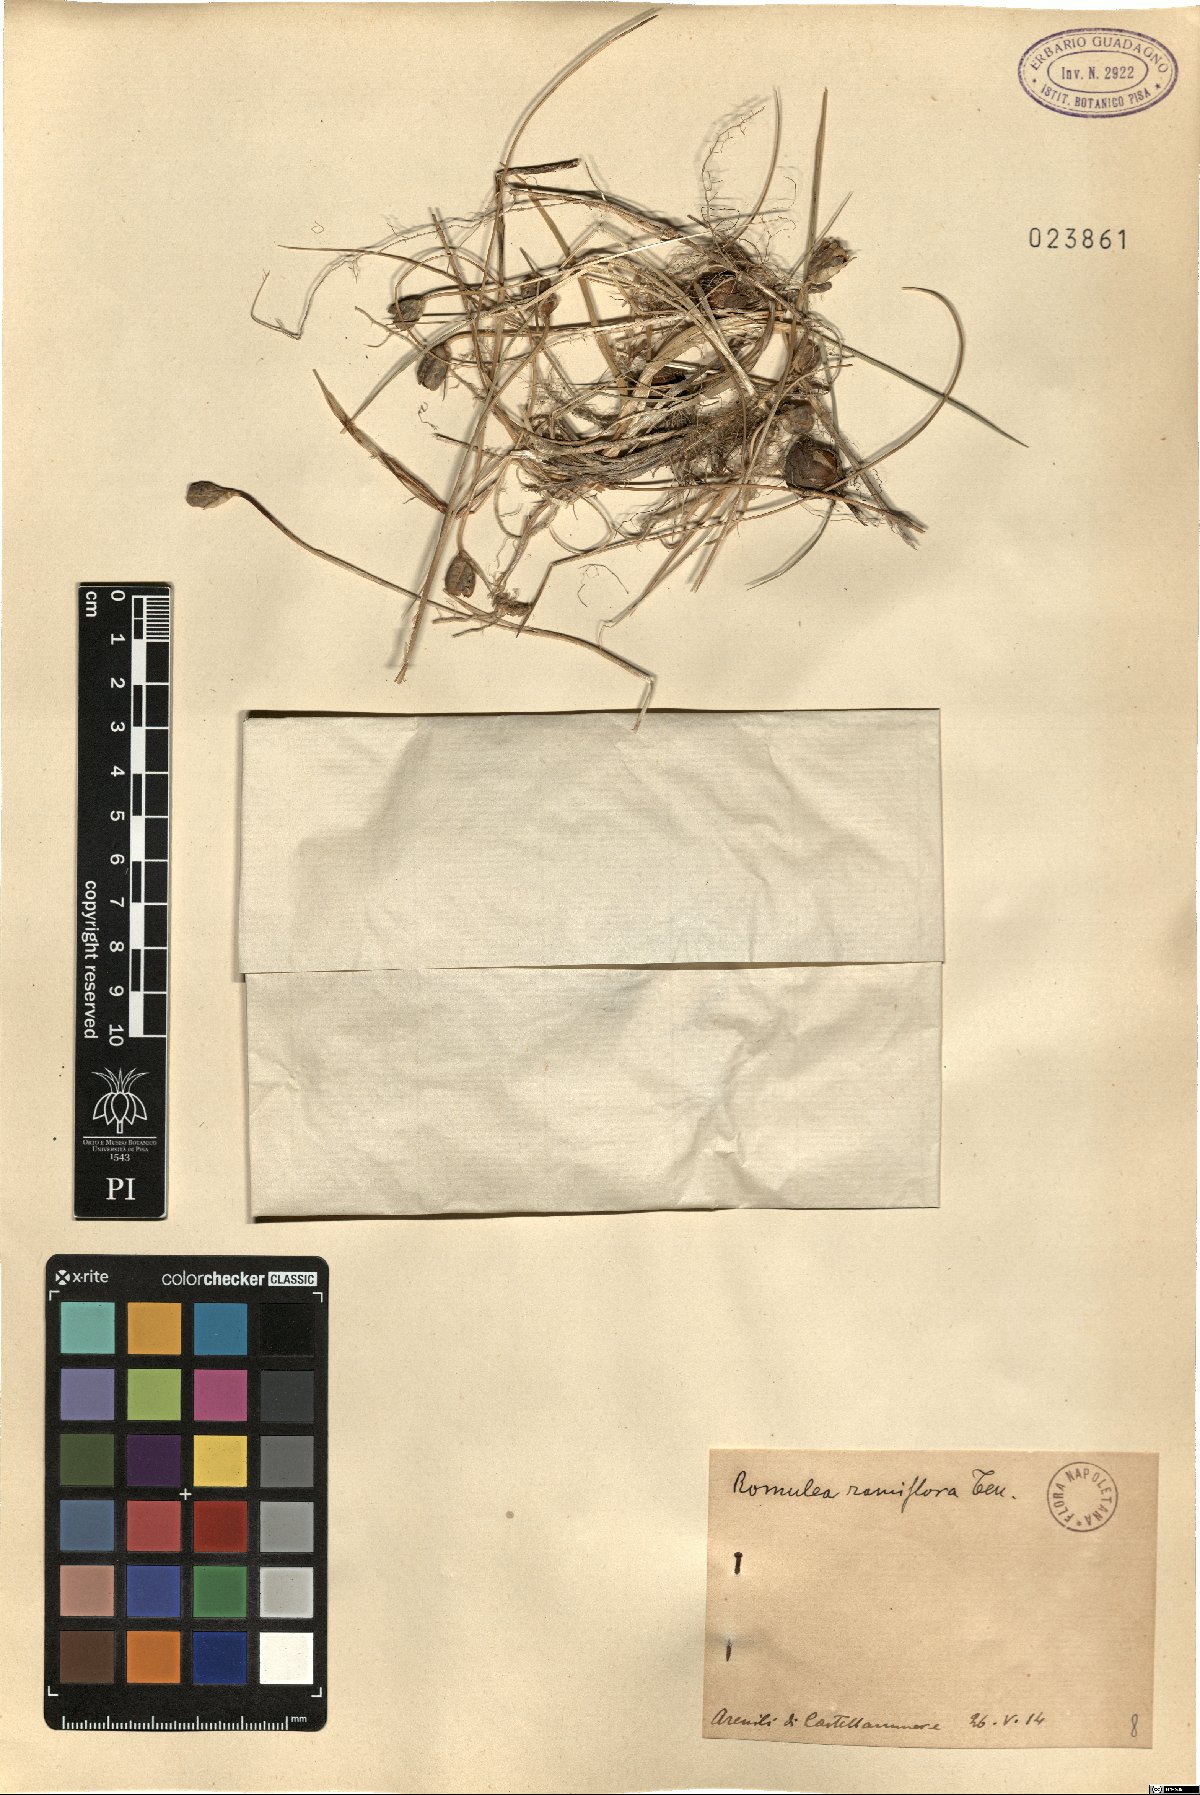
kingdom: Plantae
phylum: Tracheophyta
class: Liliopsida
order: Asparagales
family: Iridaceae
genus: Romulea
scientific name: Romulea ramiflora
